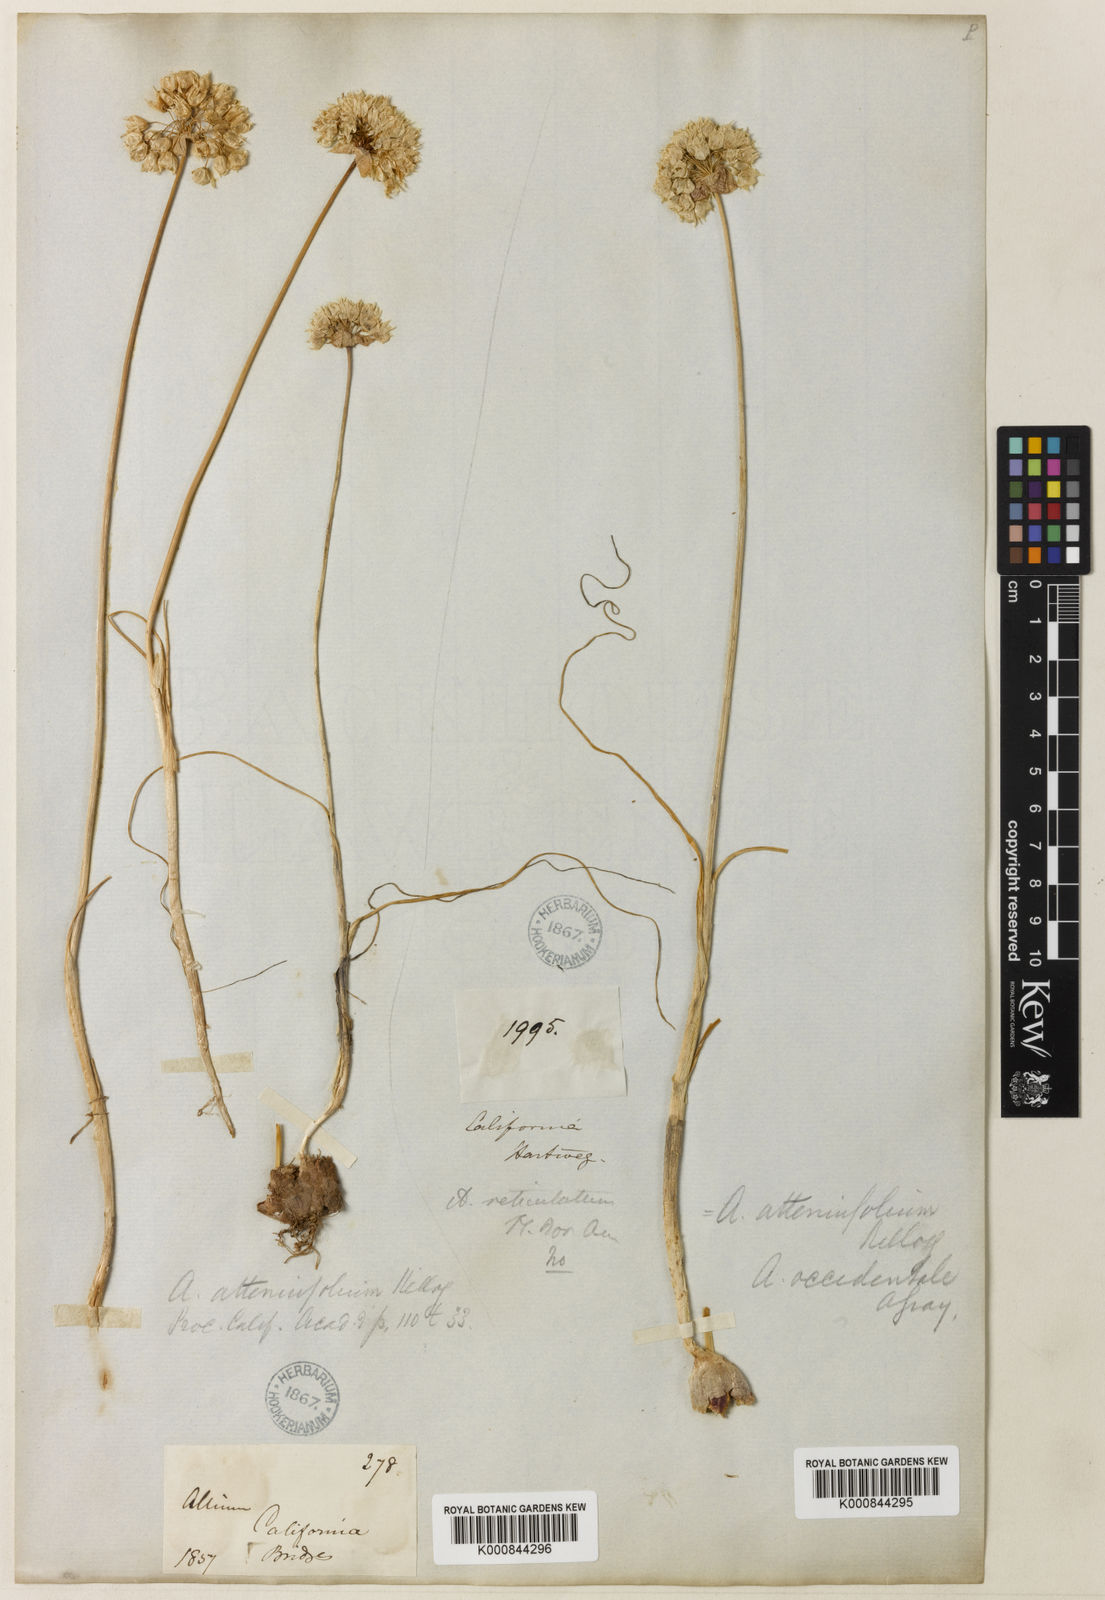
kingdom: Plantae
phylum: Tracheophyta
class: Liliopsida
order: Asparagales
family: Amaryllidaceae
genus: Allium
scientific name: Allium amplectens
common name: Narrow-leaved onion
